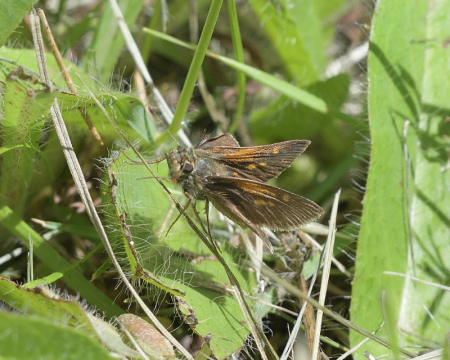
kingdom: Animalia
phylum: Arthropoda
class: Insecta
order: Lepidoptera
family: Hesperiidae
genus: Polites
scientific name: Polites themistocles
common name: Tawny-edged Skipper
